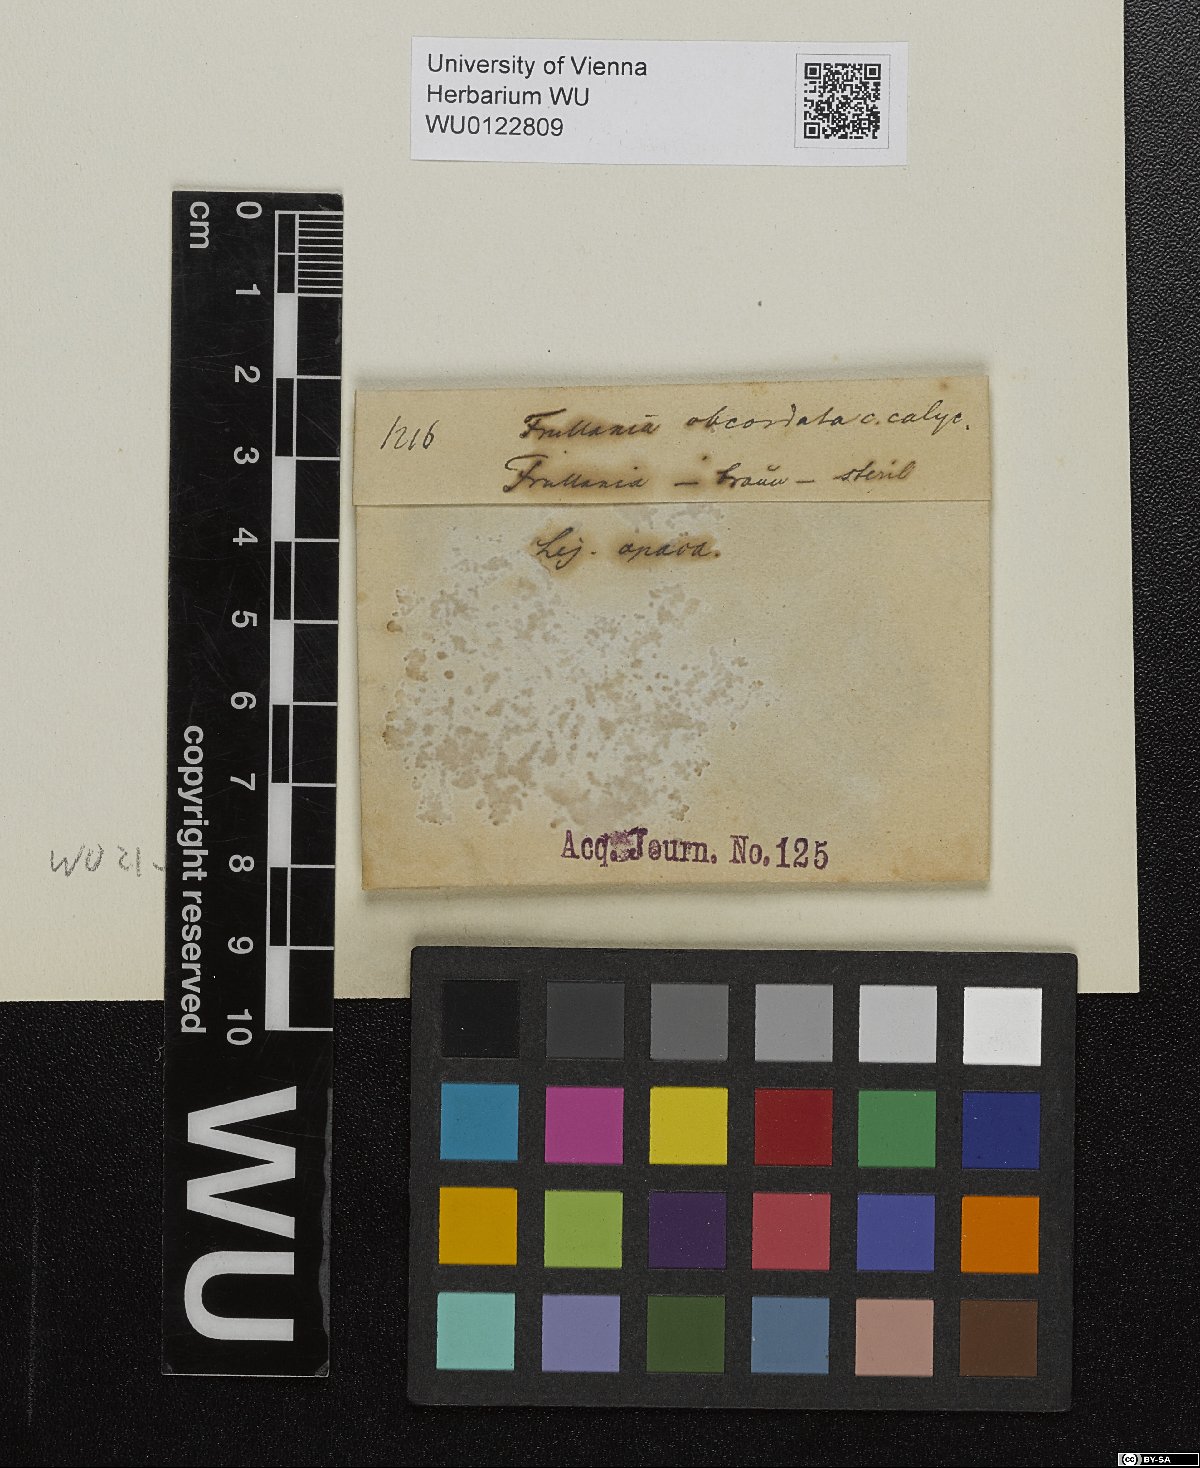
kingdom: Plantae
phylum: Marchantiophyta
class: Jungermanniopsida
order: Porellales
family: Frullaniaceae
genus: Frullania
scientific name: Frullania obcordata
